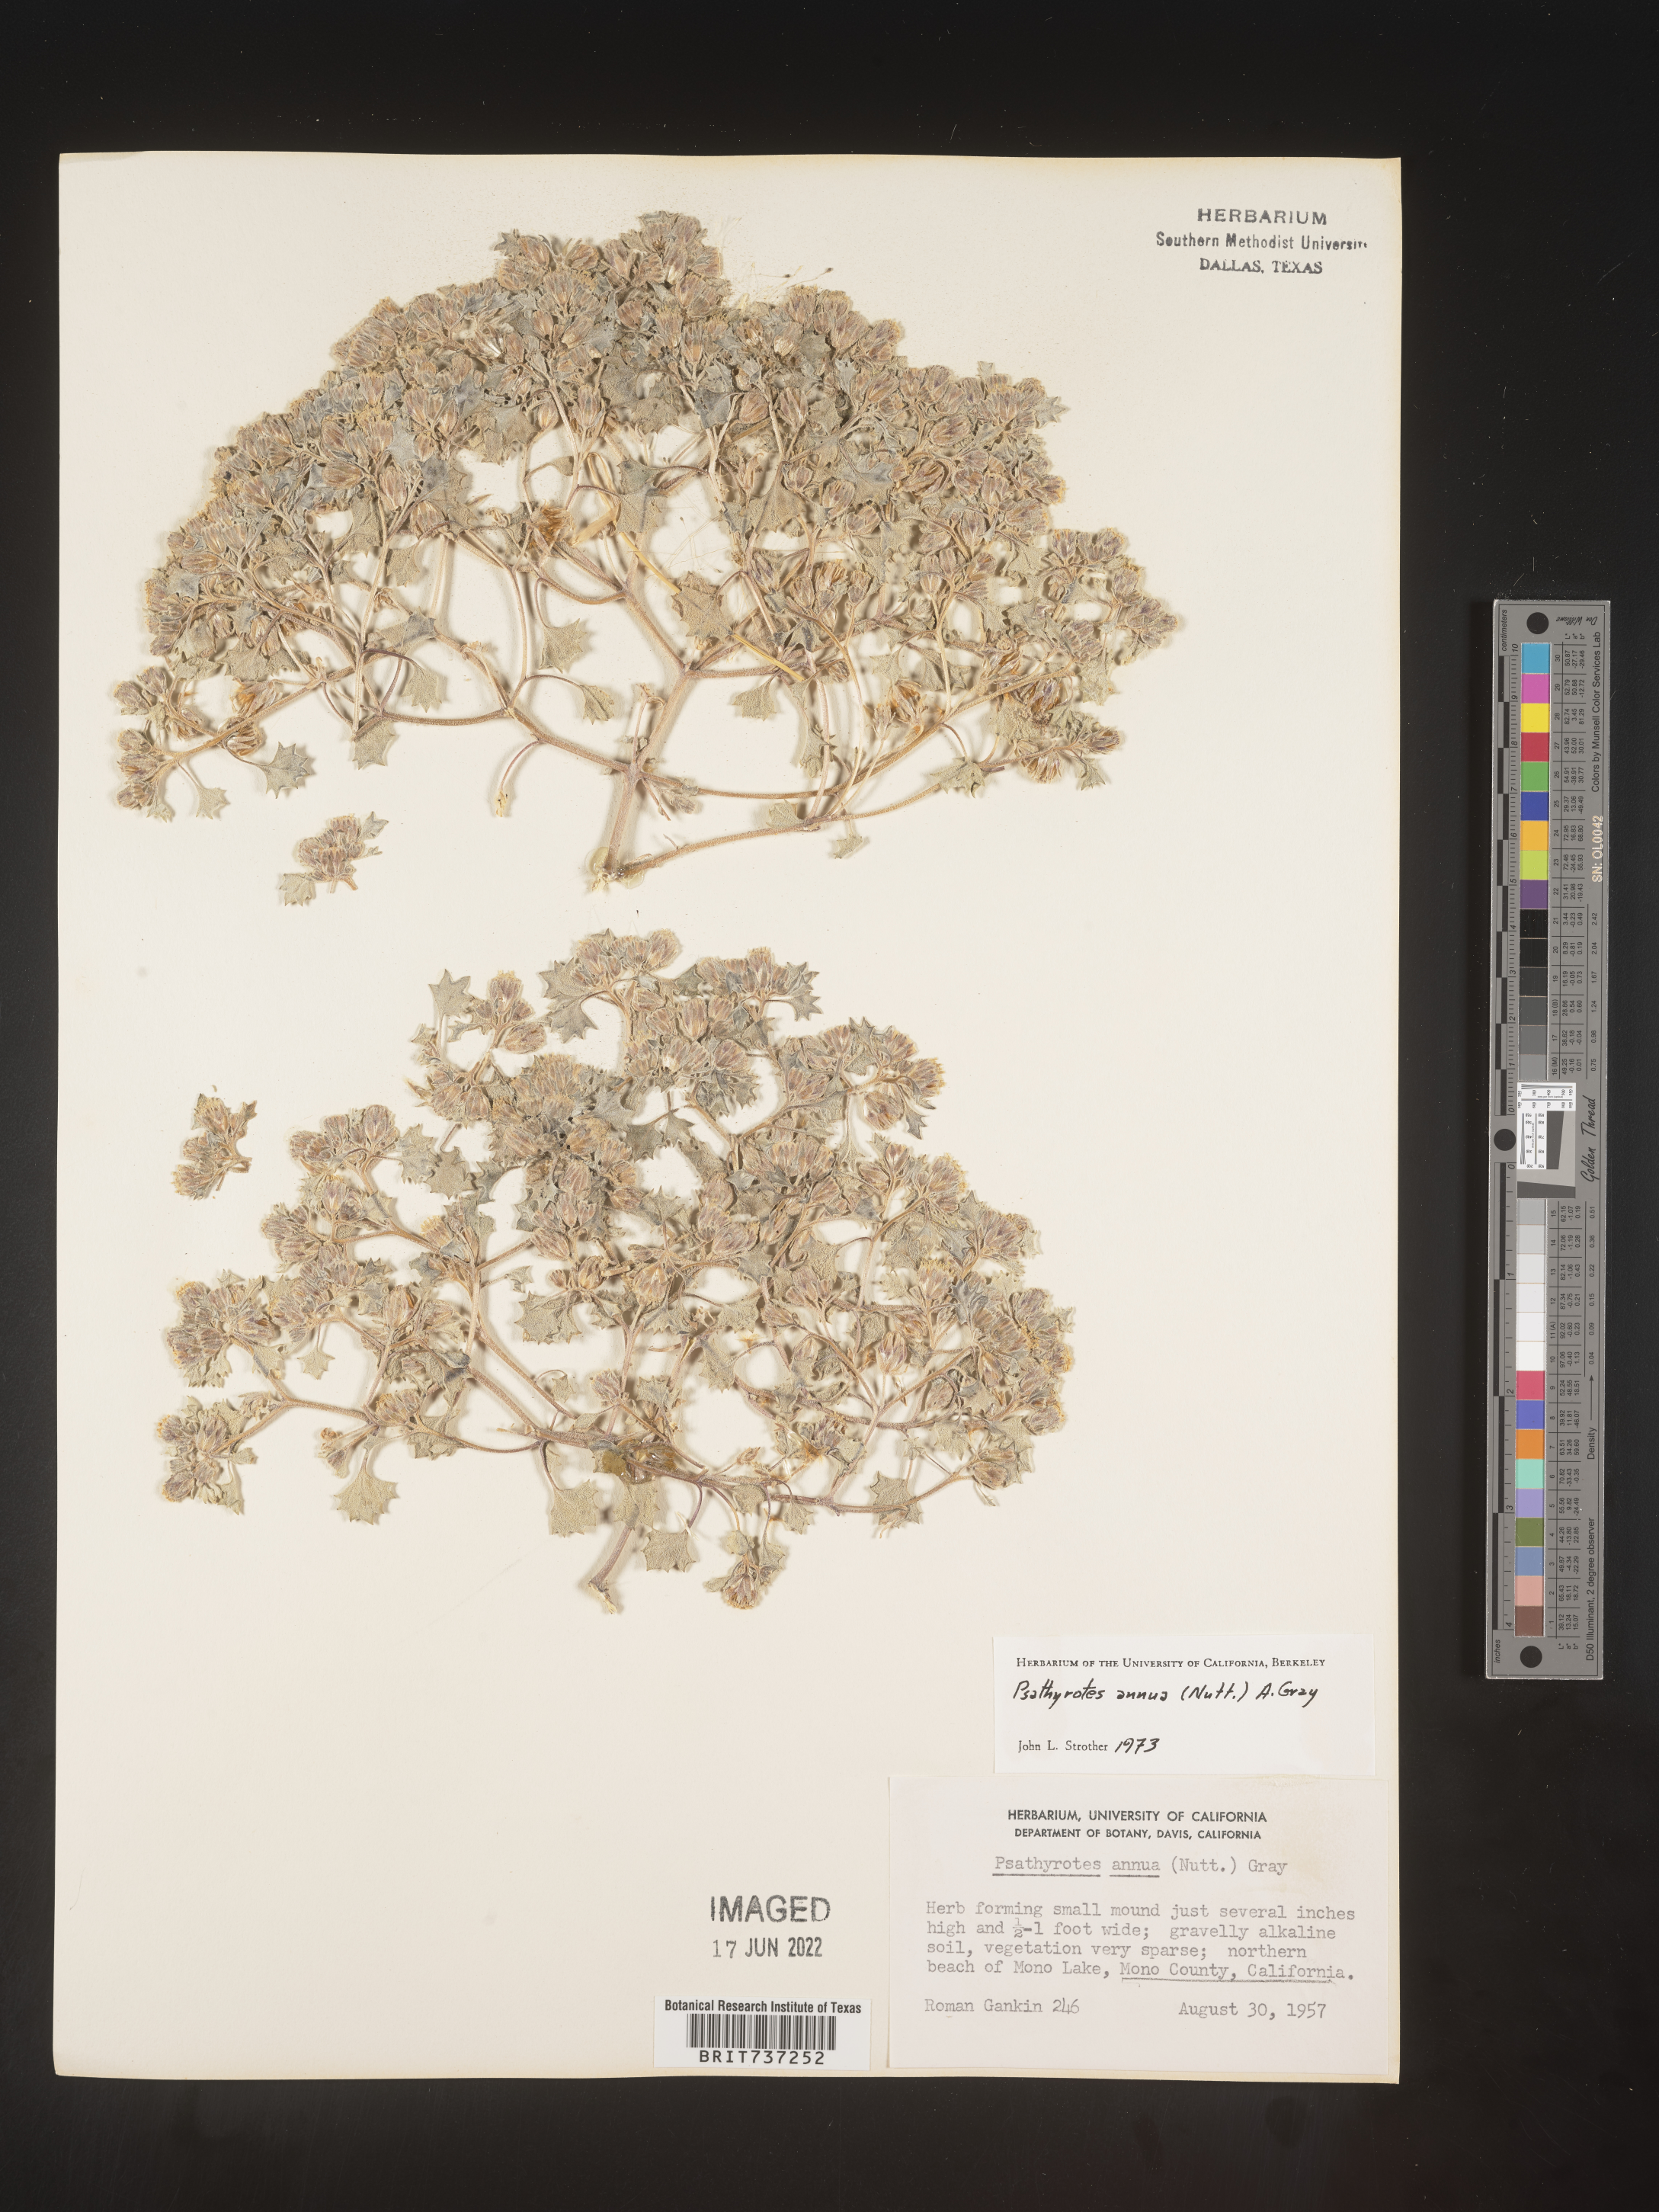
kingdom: Plantae
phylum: Tracheophyta
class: Magnoliopsida
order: Asterales
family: Asteraceae
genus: Psathyrotes
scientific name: Psathyrotes
